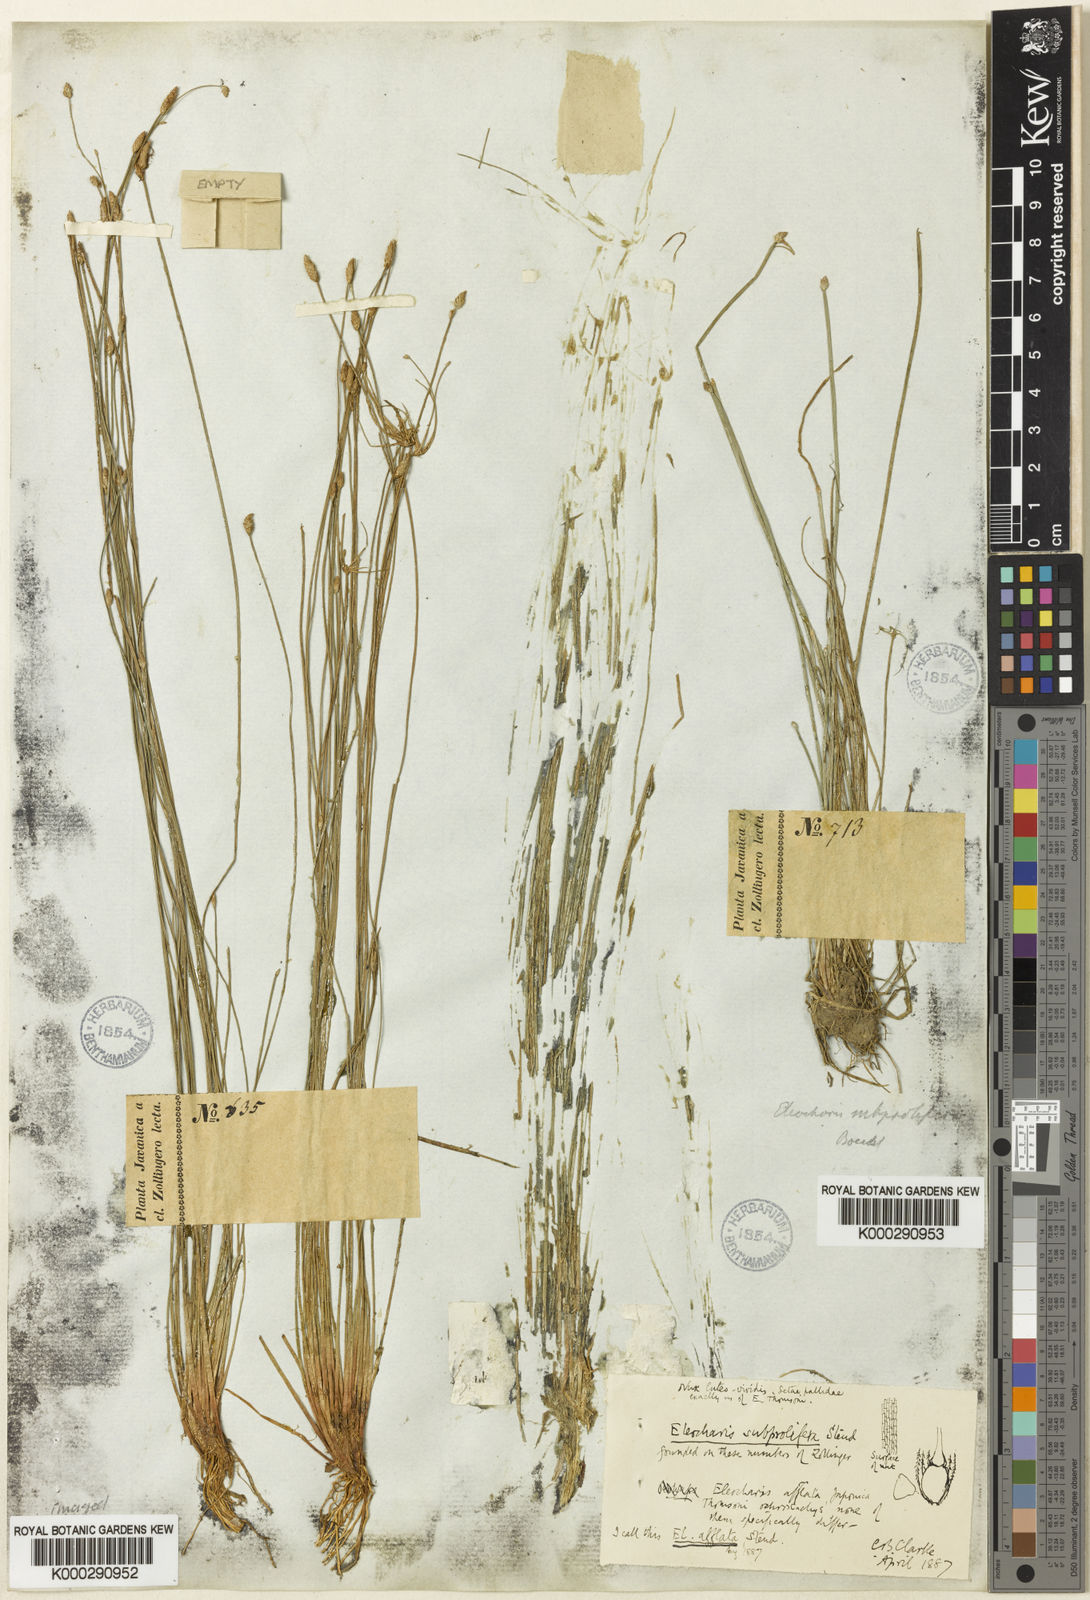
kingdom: Plantae
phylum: Tracheophyta
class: Liliopsida
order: Poales
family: Cyperaceae
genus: Eleocharis
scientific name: Eleocharis pellucida
